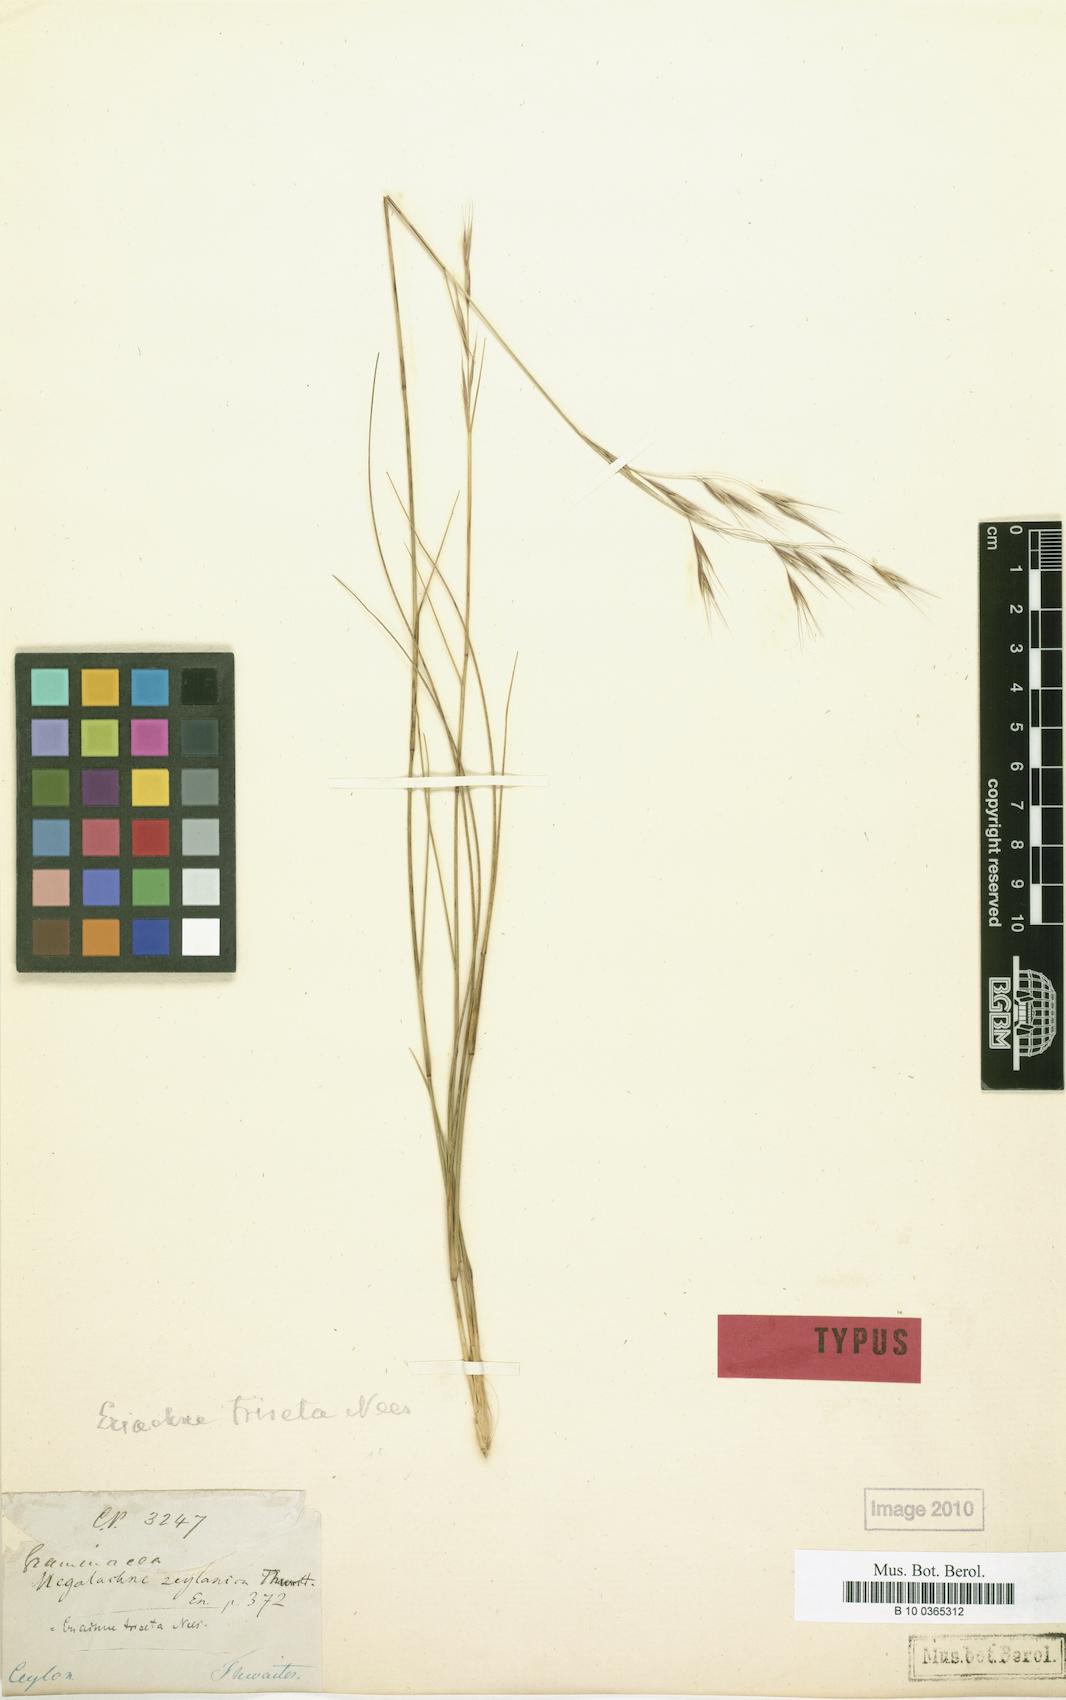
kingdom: Plantae
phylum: Tracheophyta
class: Liliopsida
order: Poales
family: Poaceae
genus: Eriachne
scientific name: Eriachne triseta
